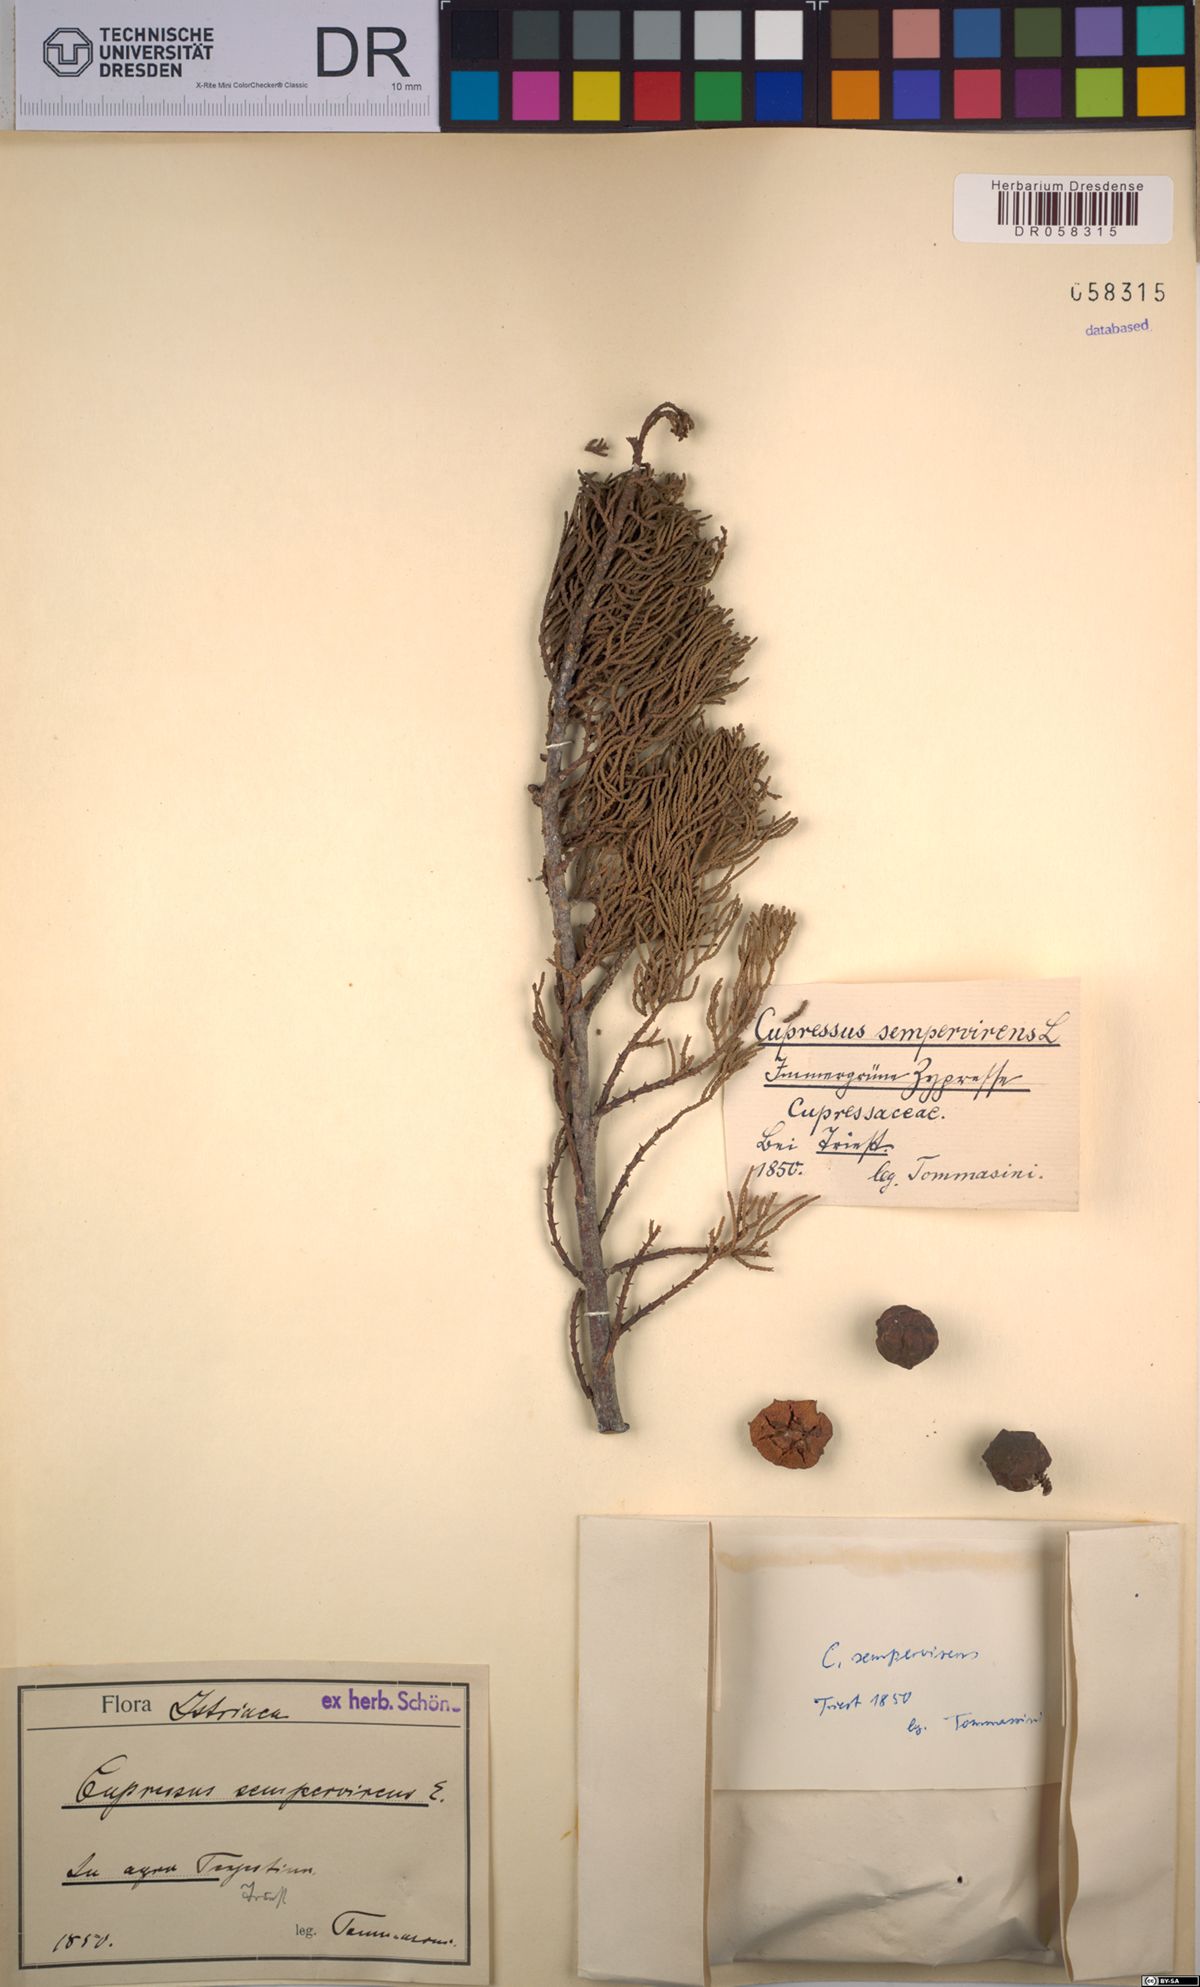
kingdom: Plantae
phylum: Tracheophyta
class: Pinopsida
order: Pinales
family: Cupressaceae
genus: Cupressus
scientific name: Cupressus sempervirens
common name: Italian cypress
